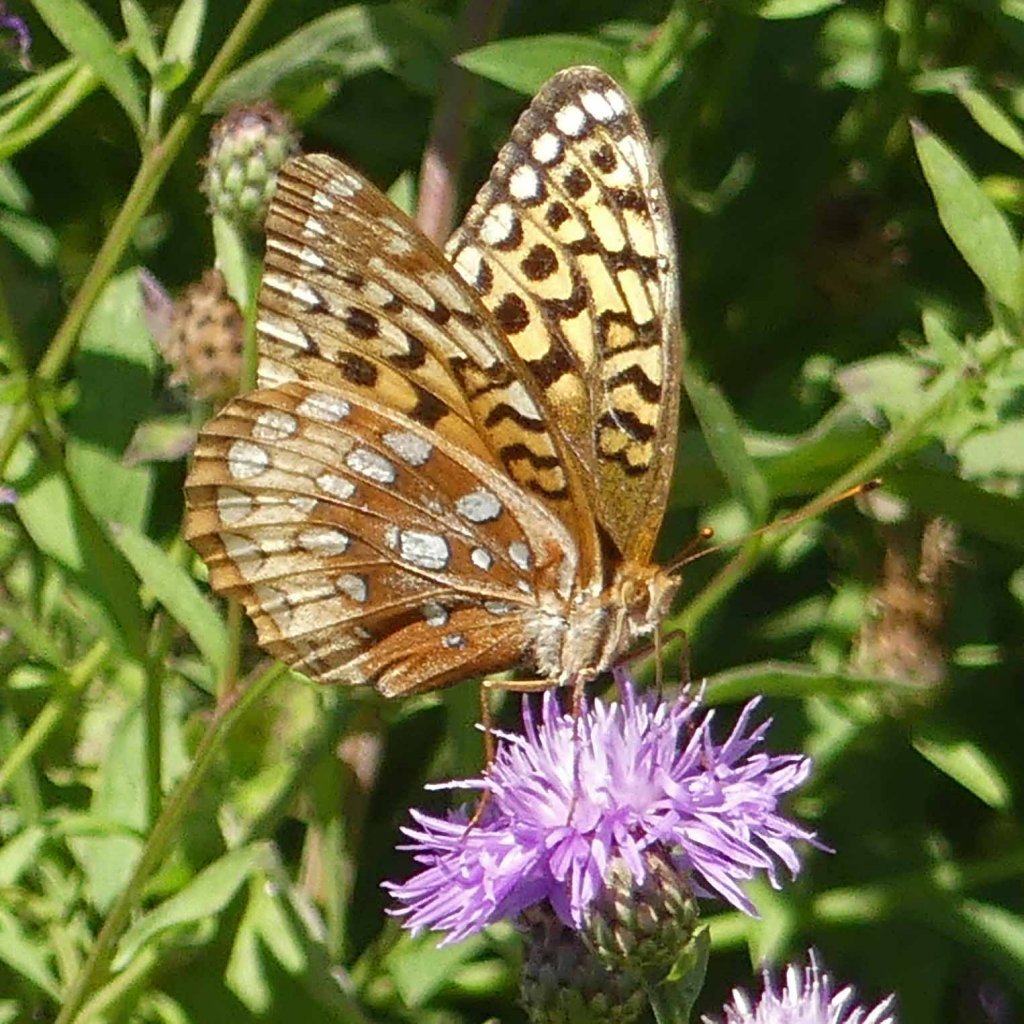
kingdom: Animalia
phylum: Arthropoda
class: Insecta
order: Lepidoptera
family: Nymphalidae
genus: Speyeria
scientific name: Speyeria cybele
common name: Great Spangled Fritillary
